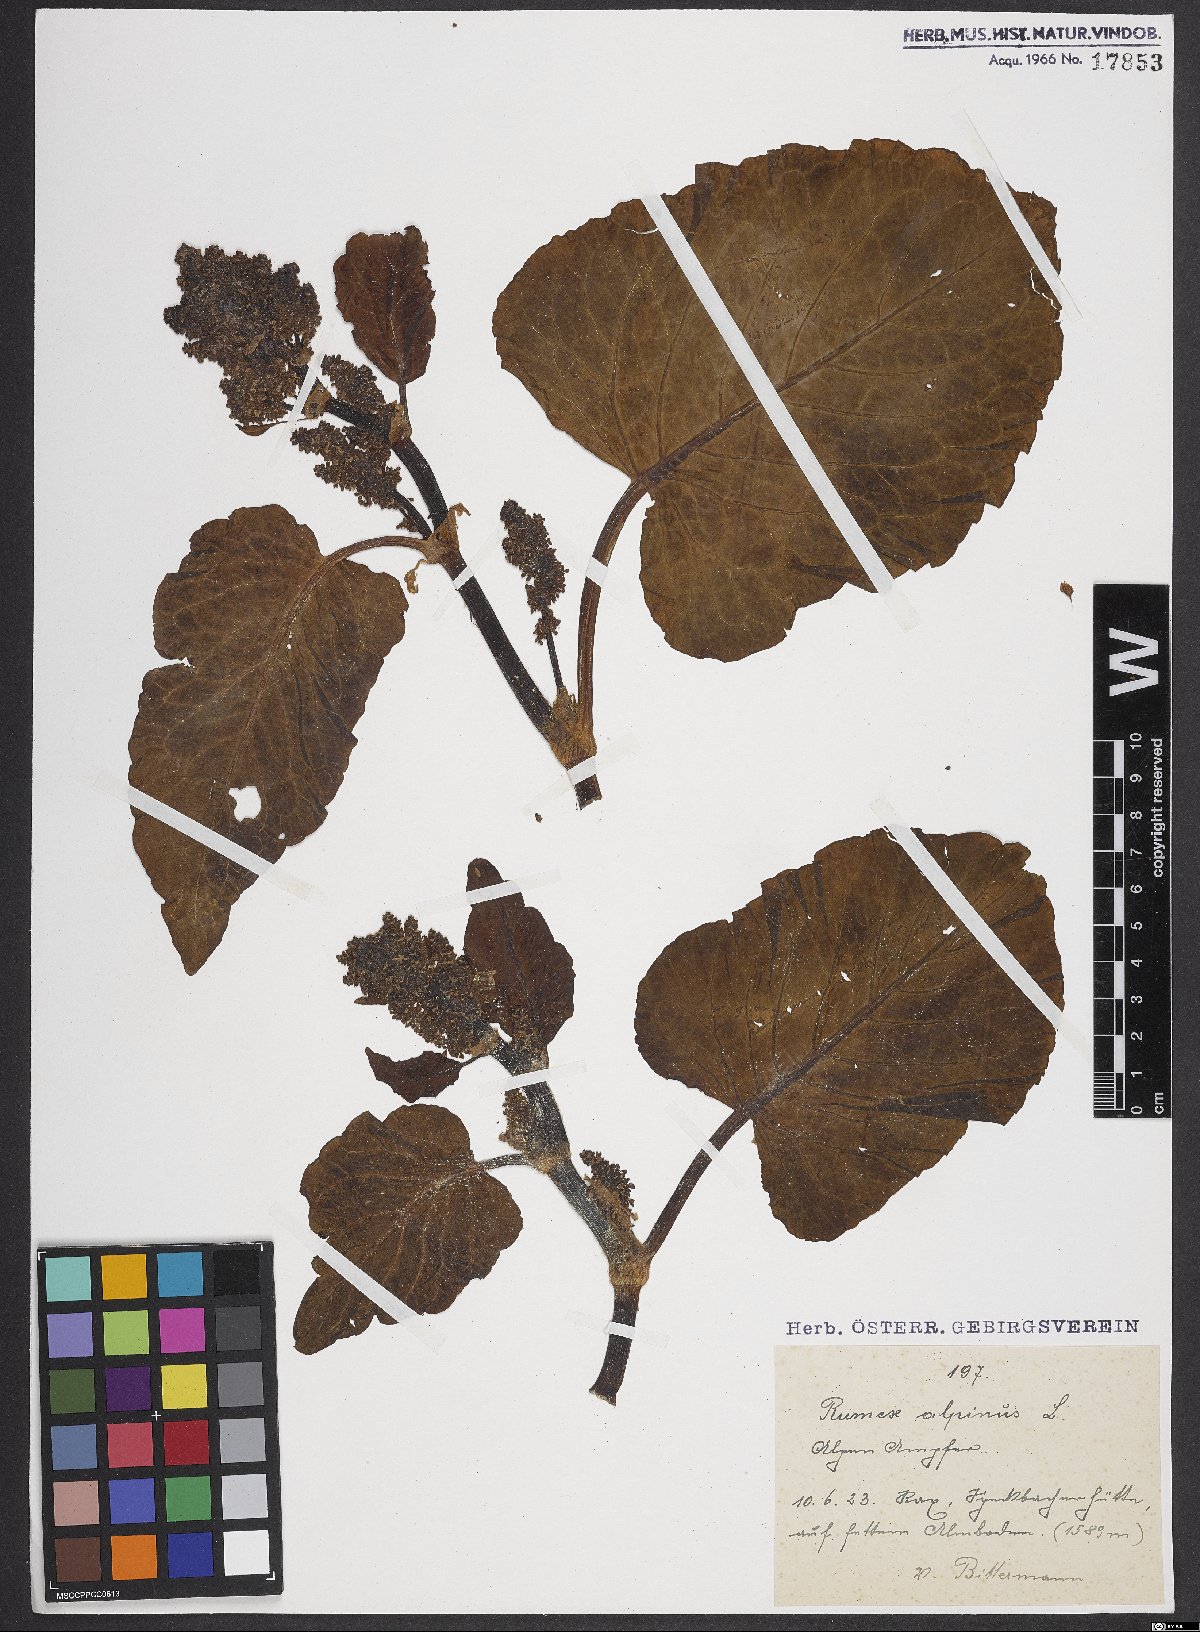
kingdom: Plantae
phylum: Tracheophyta
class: Magnoliopsida
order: Caryophyllales
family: Polygonaceae
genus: Rumex
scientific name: Rumex alpinus
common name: Alpine dock
